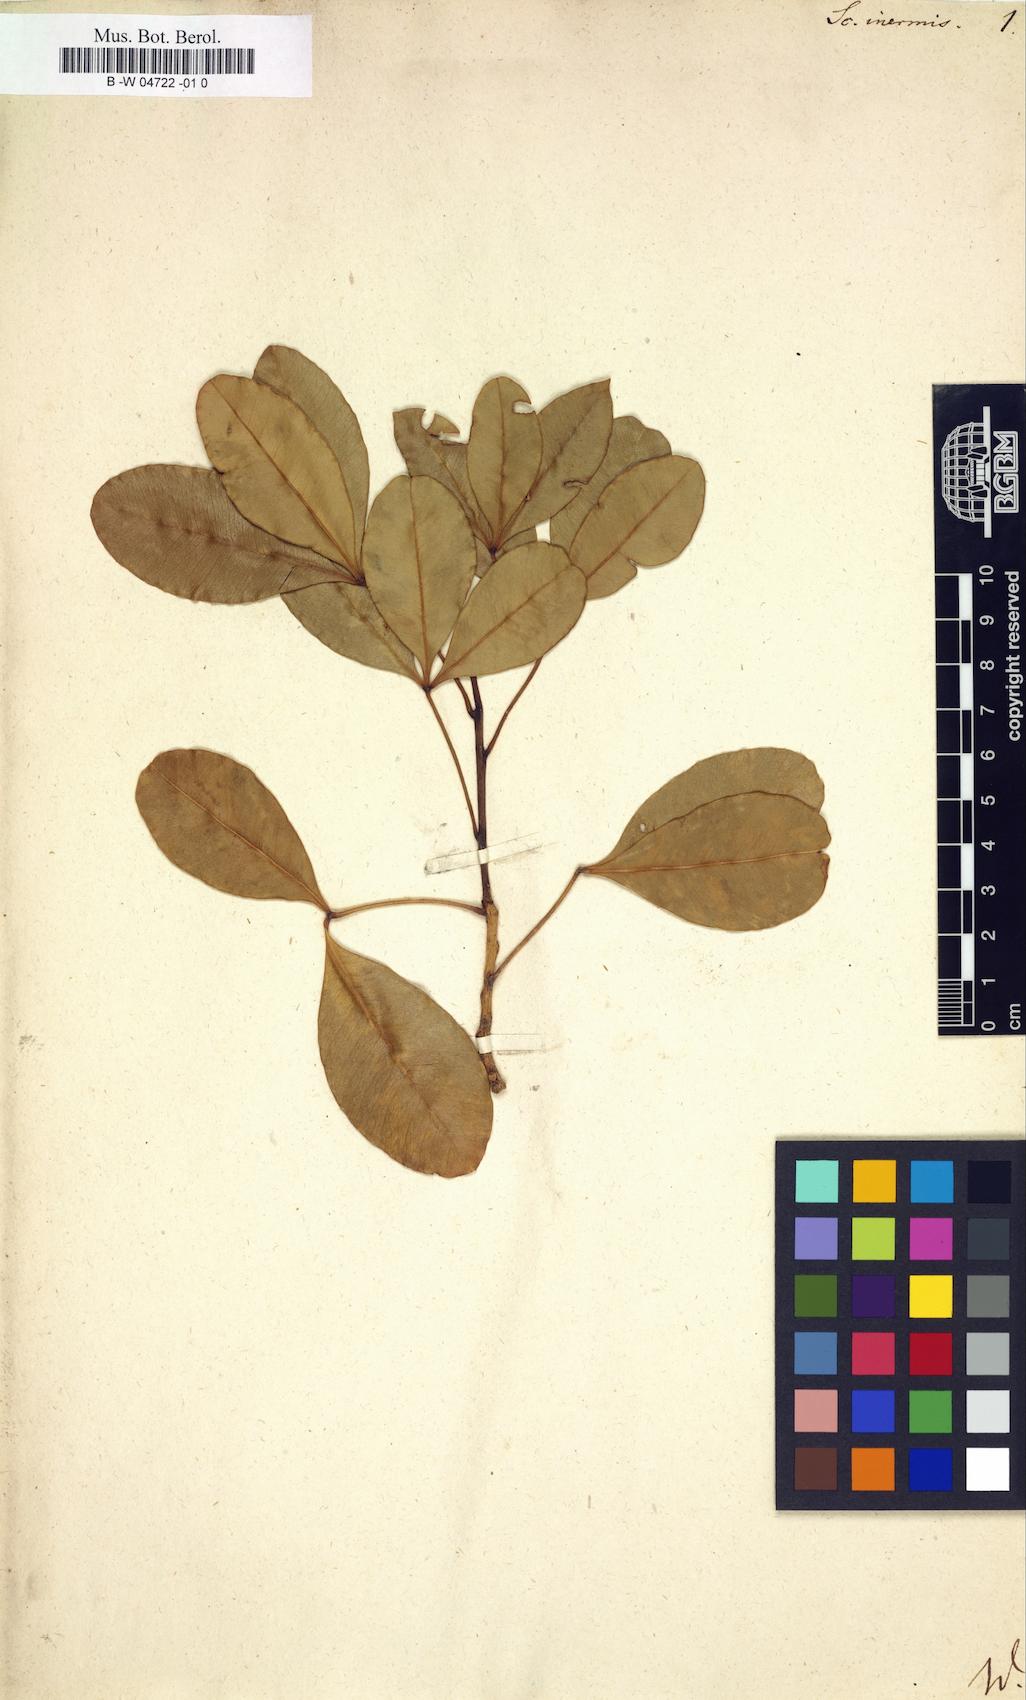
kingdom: Plantae
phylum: Tracheophyta
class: Magnoliopsida
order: Sapindales
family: Rutaceae
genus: Vepris
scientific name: Vepris lanceolata
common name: White ironwood
